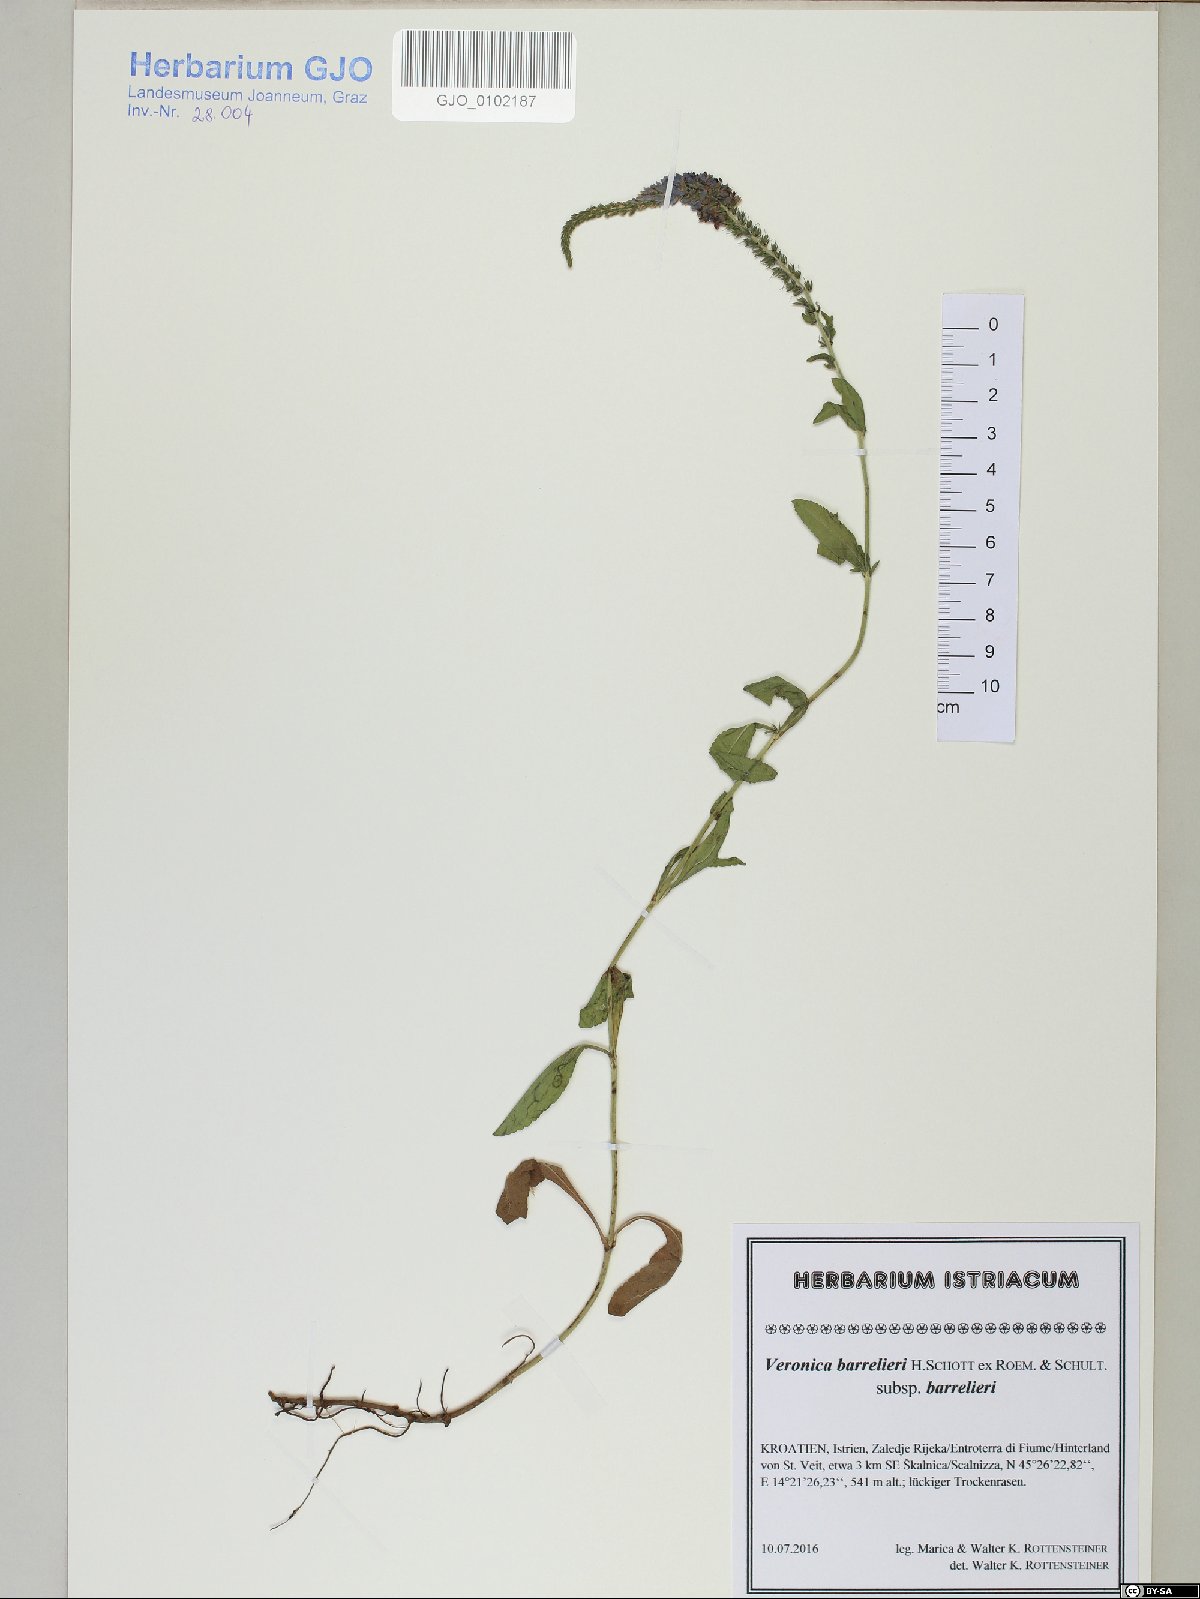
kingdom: Plantae
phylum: Tracheophyta
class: Magnoliopsida
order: Lamiales
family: Plantaginaceae
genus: Veronica
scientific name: Veronica barrelieri
